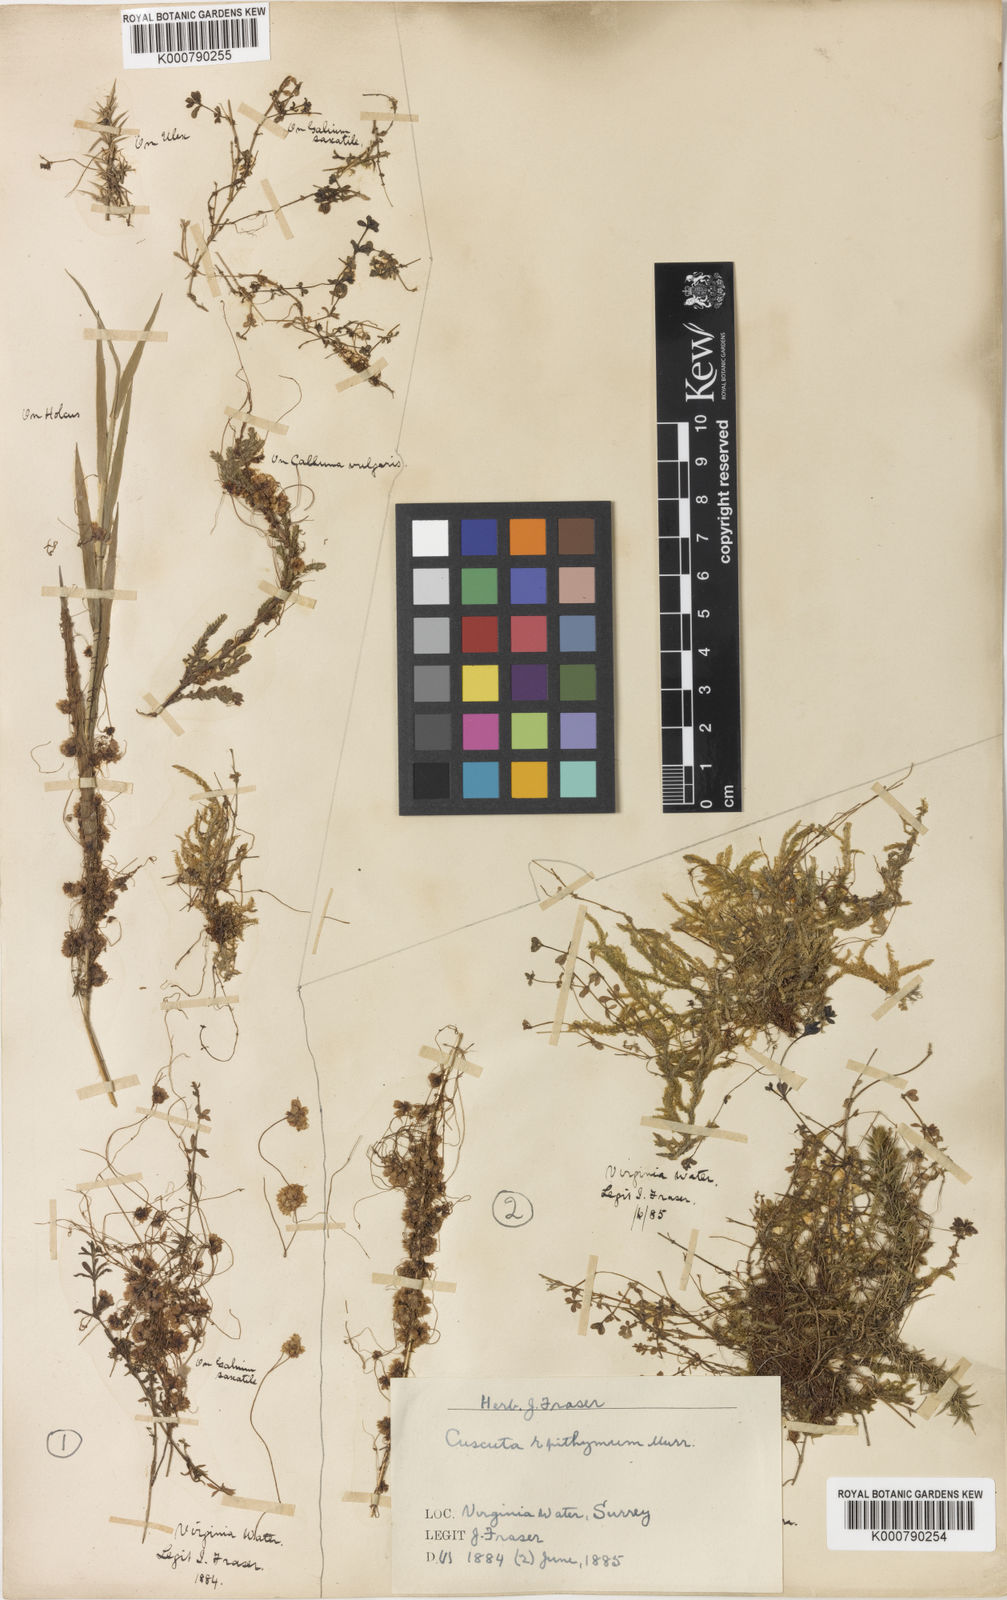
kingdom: Plantae
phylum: Tracheophyta
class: Magnoliopsida
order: Solanales
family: Convolvulaceae
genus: Cuscuta
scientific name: Cuscuta epithymum
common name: Clover dodder
